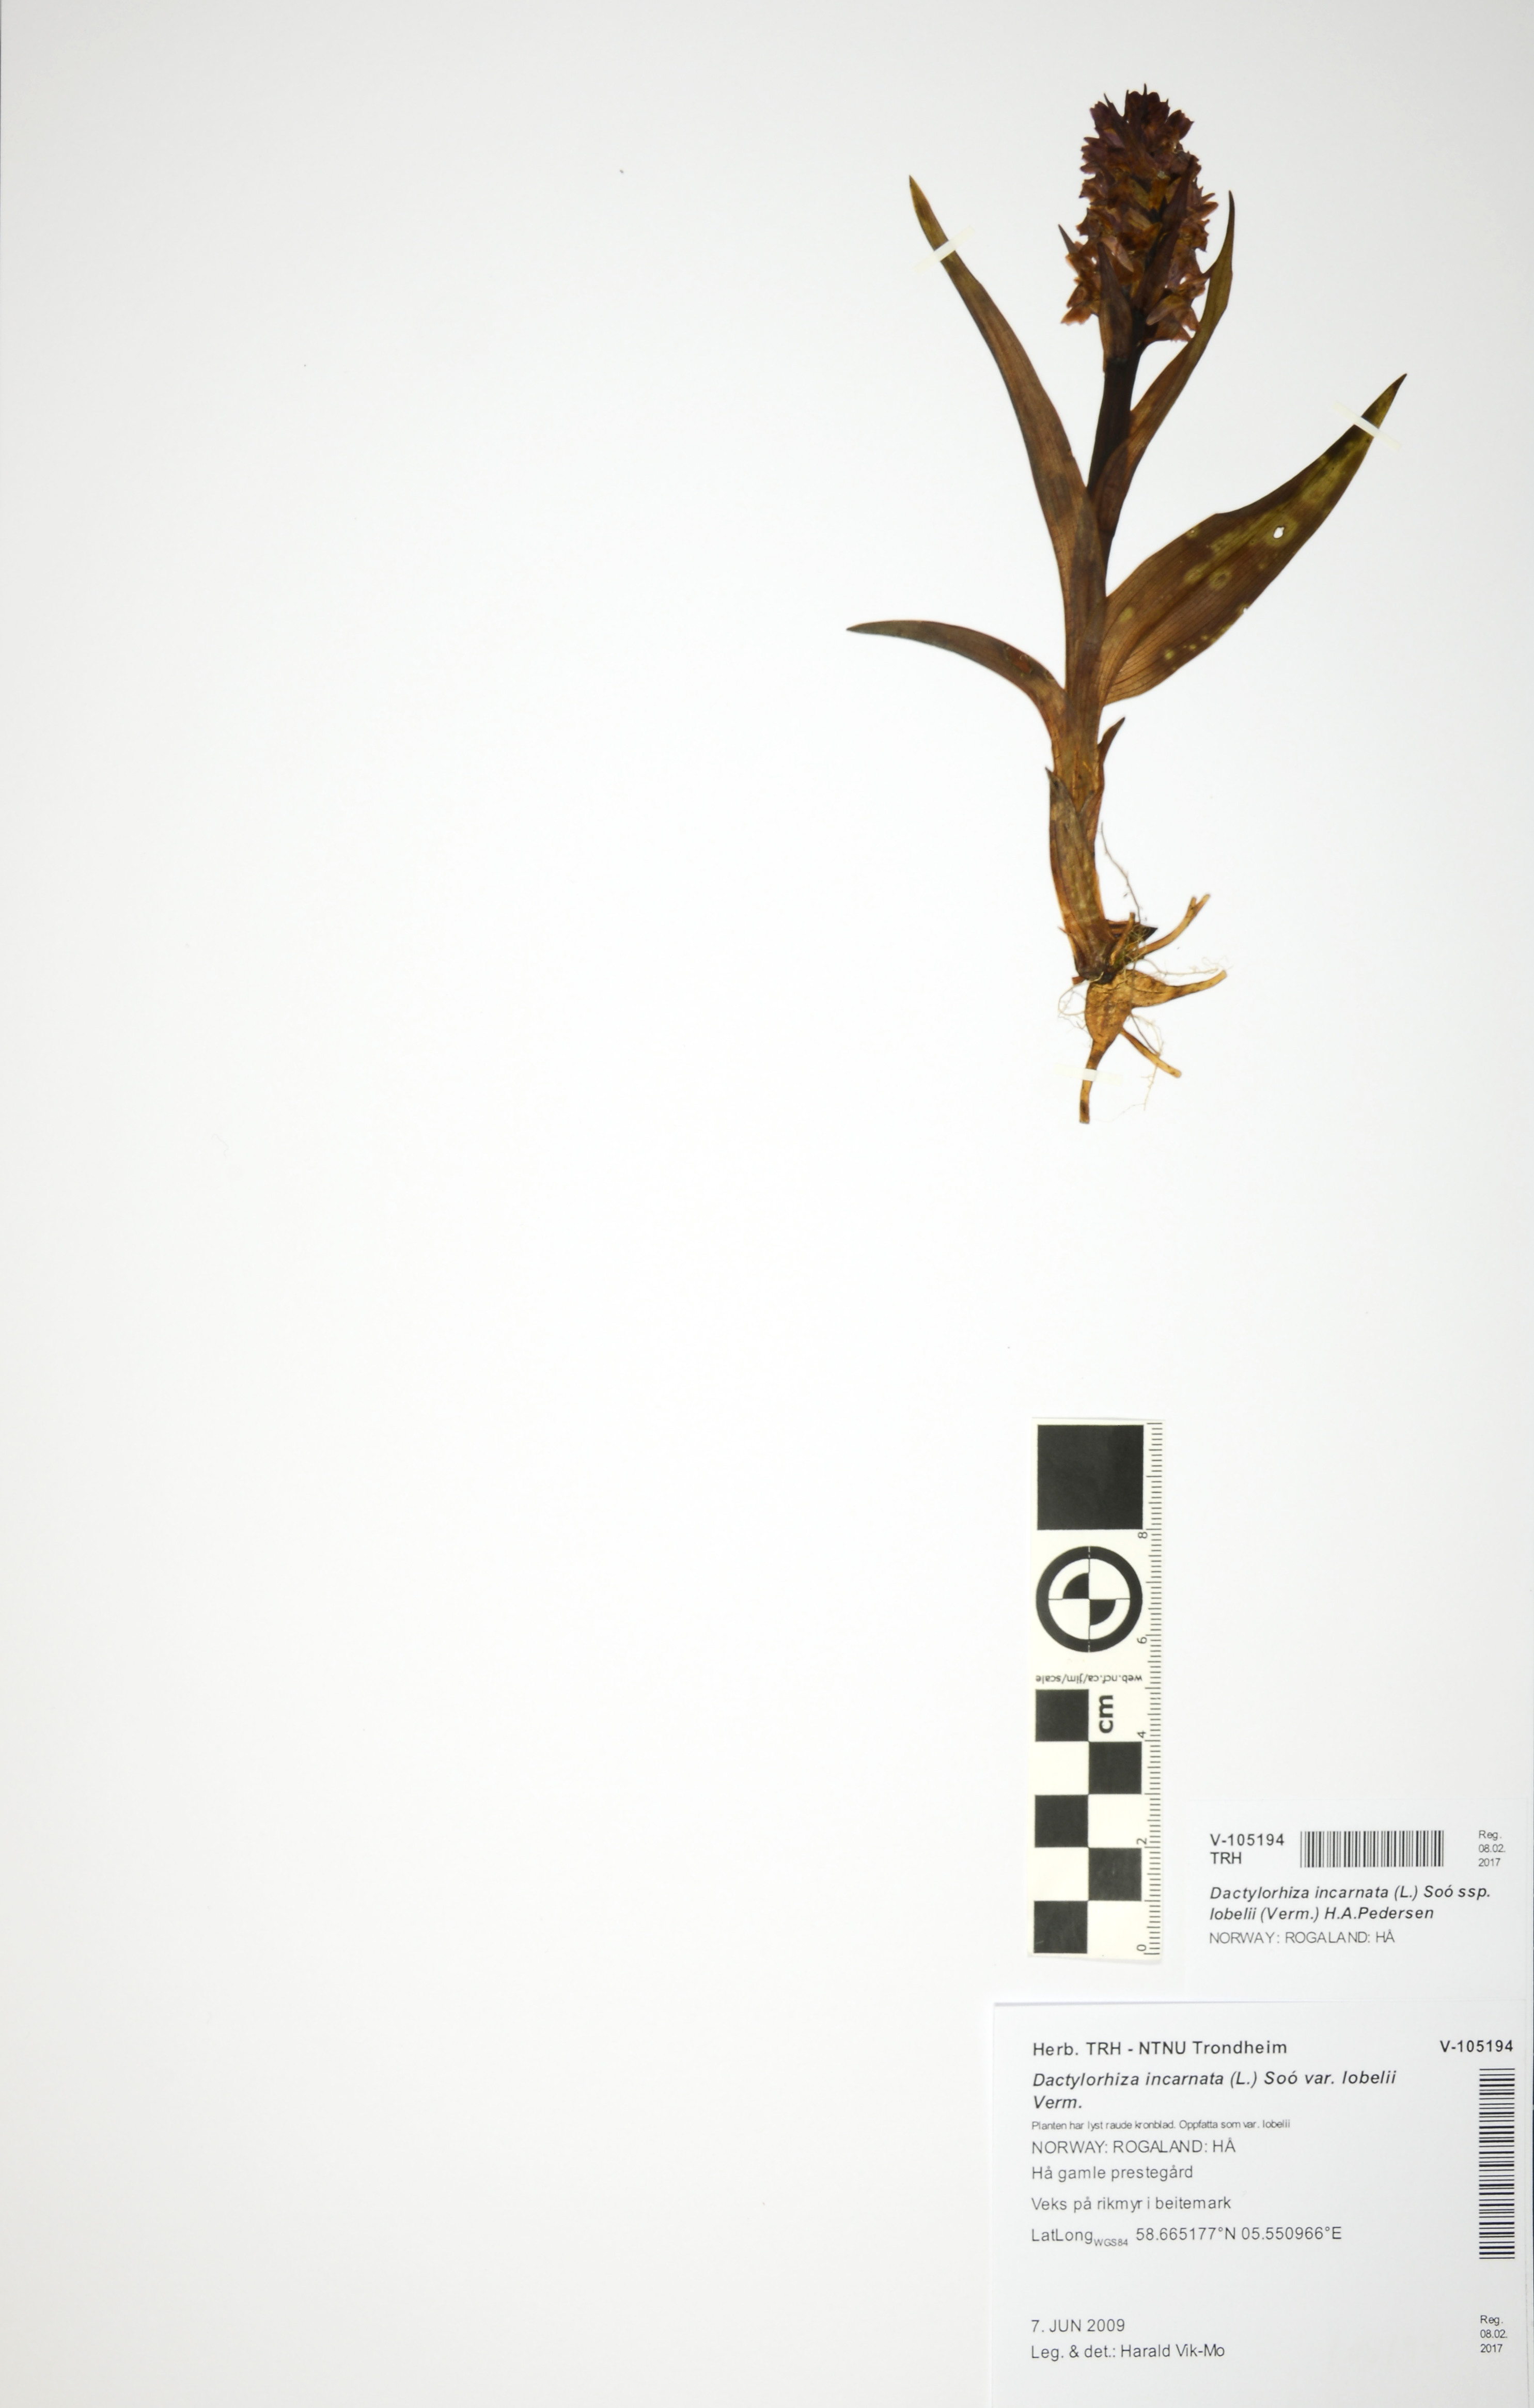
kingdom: Plantae
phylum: Tracheophyta
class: Liliopsida
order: Asparagales
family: Orchidaceae
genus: Dactylorhiza
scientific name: Dactylorhiza incarnata
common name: Early marsh-orchid
